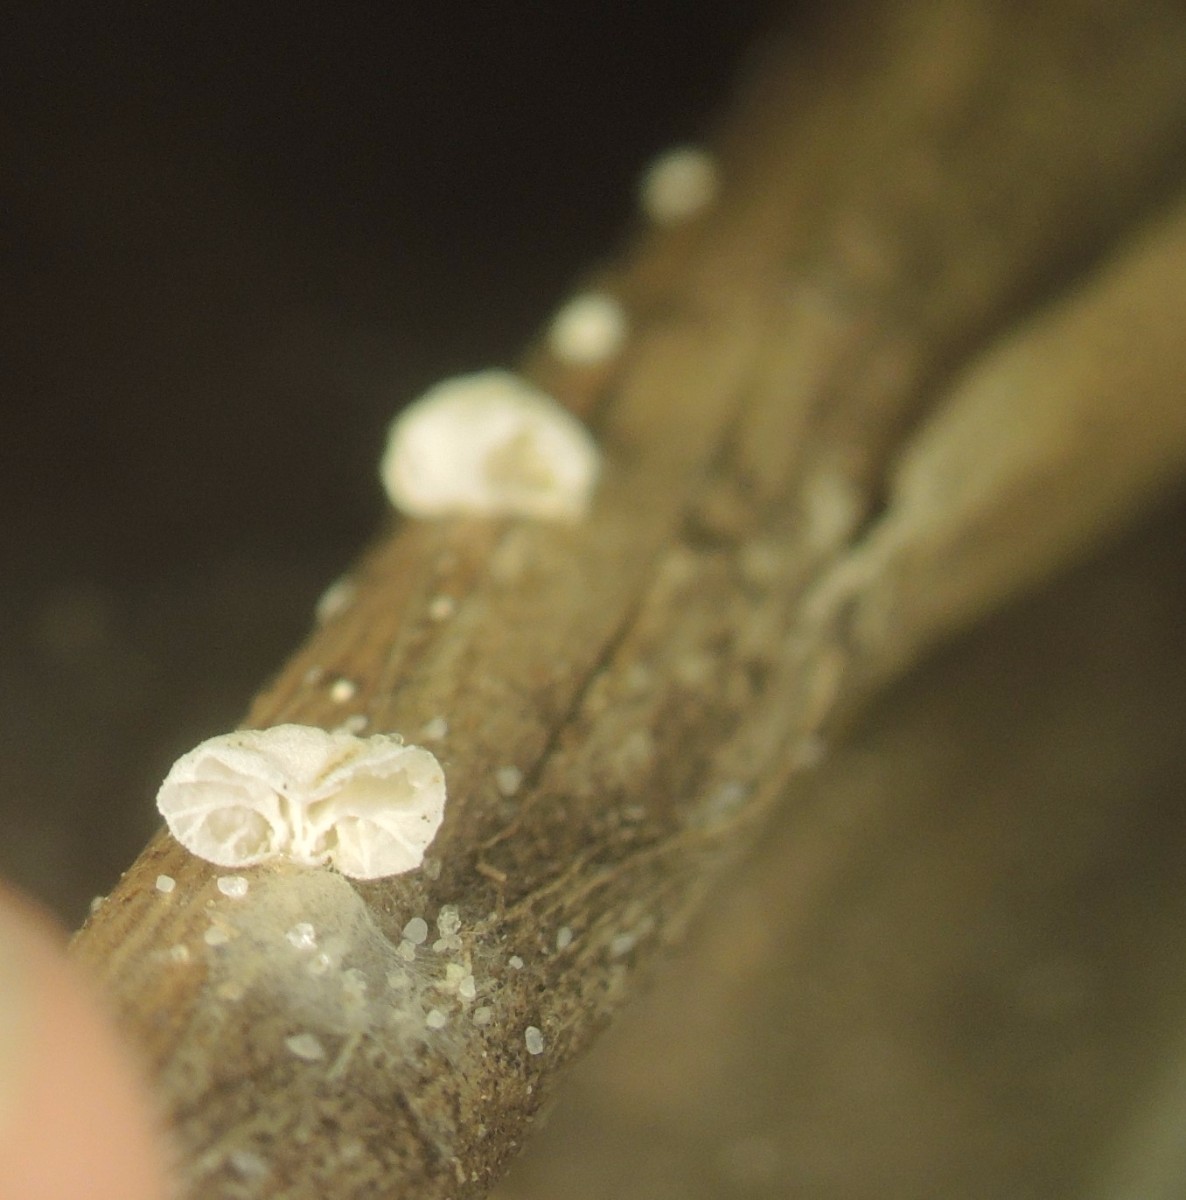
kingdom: Fungi
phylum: Basidiomycota
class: Agaricomycetes
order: Agaricales
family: Marasmiaceae
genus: Campanella
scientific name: Campanella caesia
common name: bruskøre
